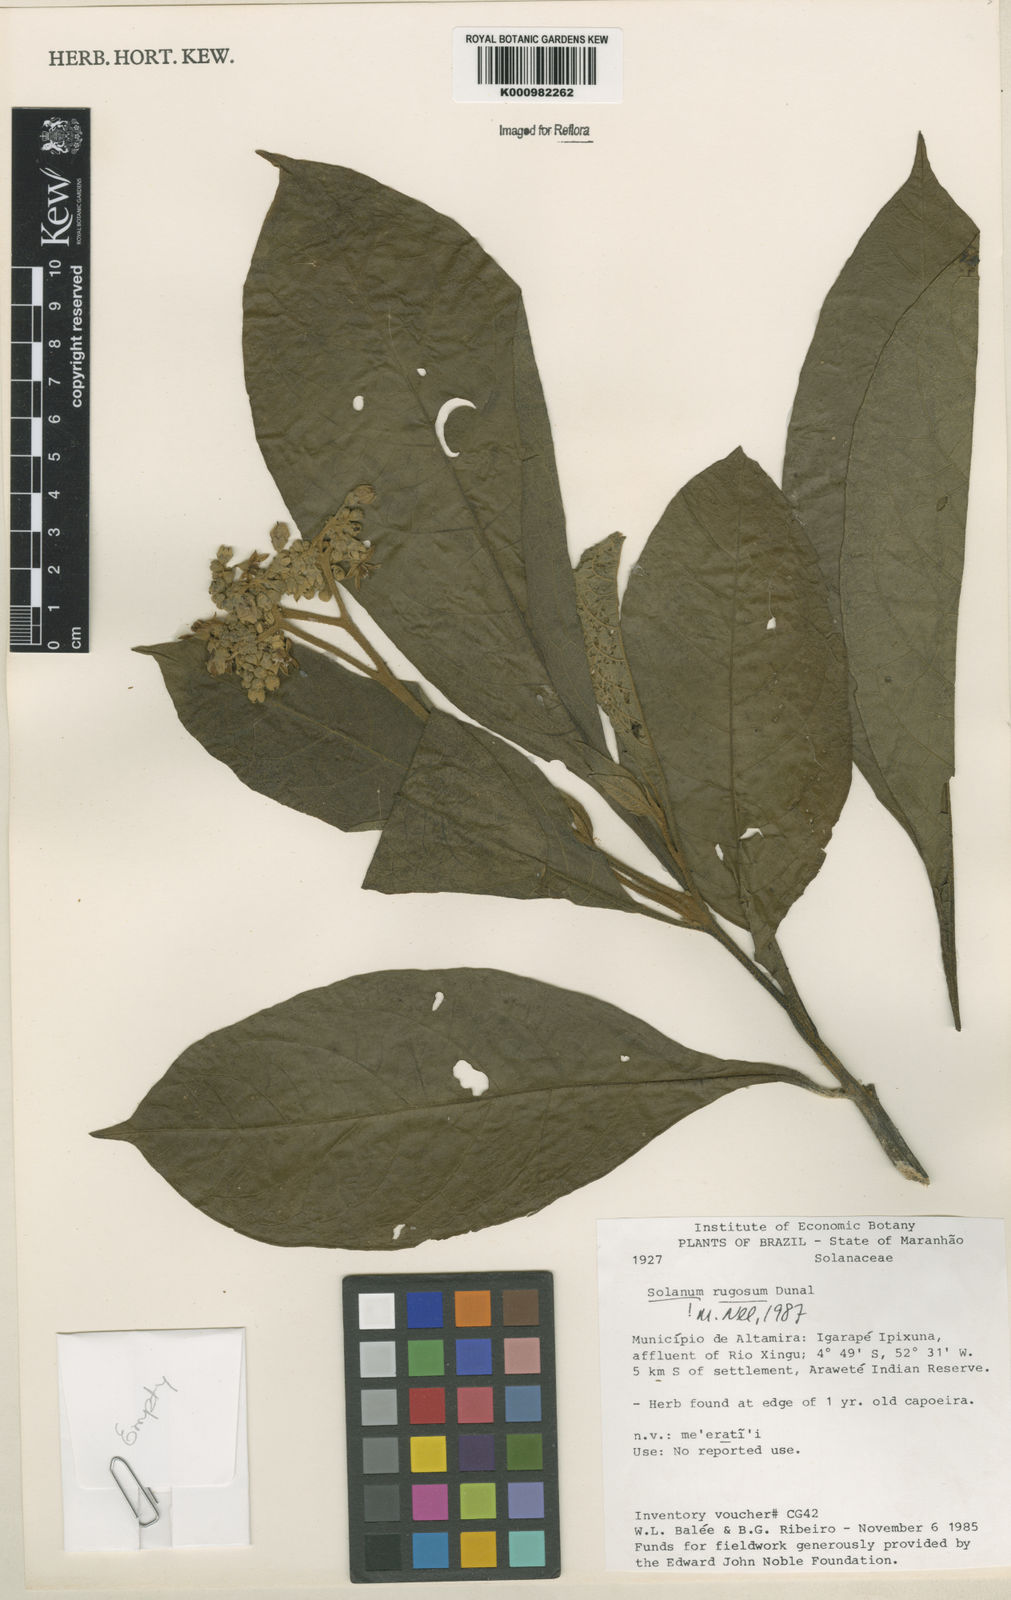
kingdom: Plantae
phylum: Tracheophyta
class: Magnoliopsida
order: Solanales
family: Solanaceae
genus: Solanum
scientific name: Solanum rugosum
